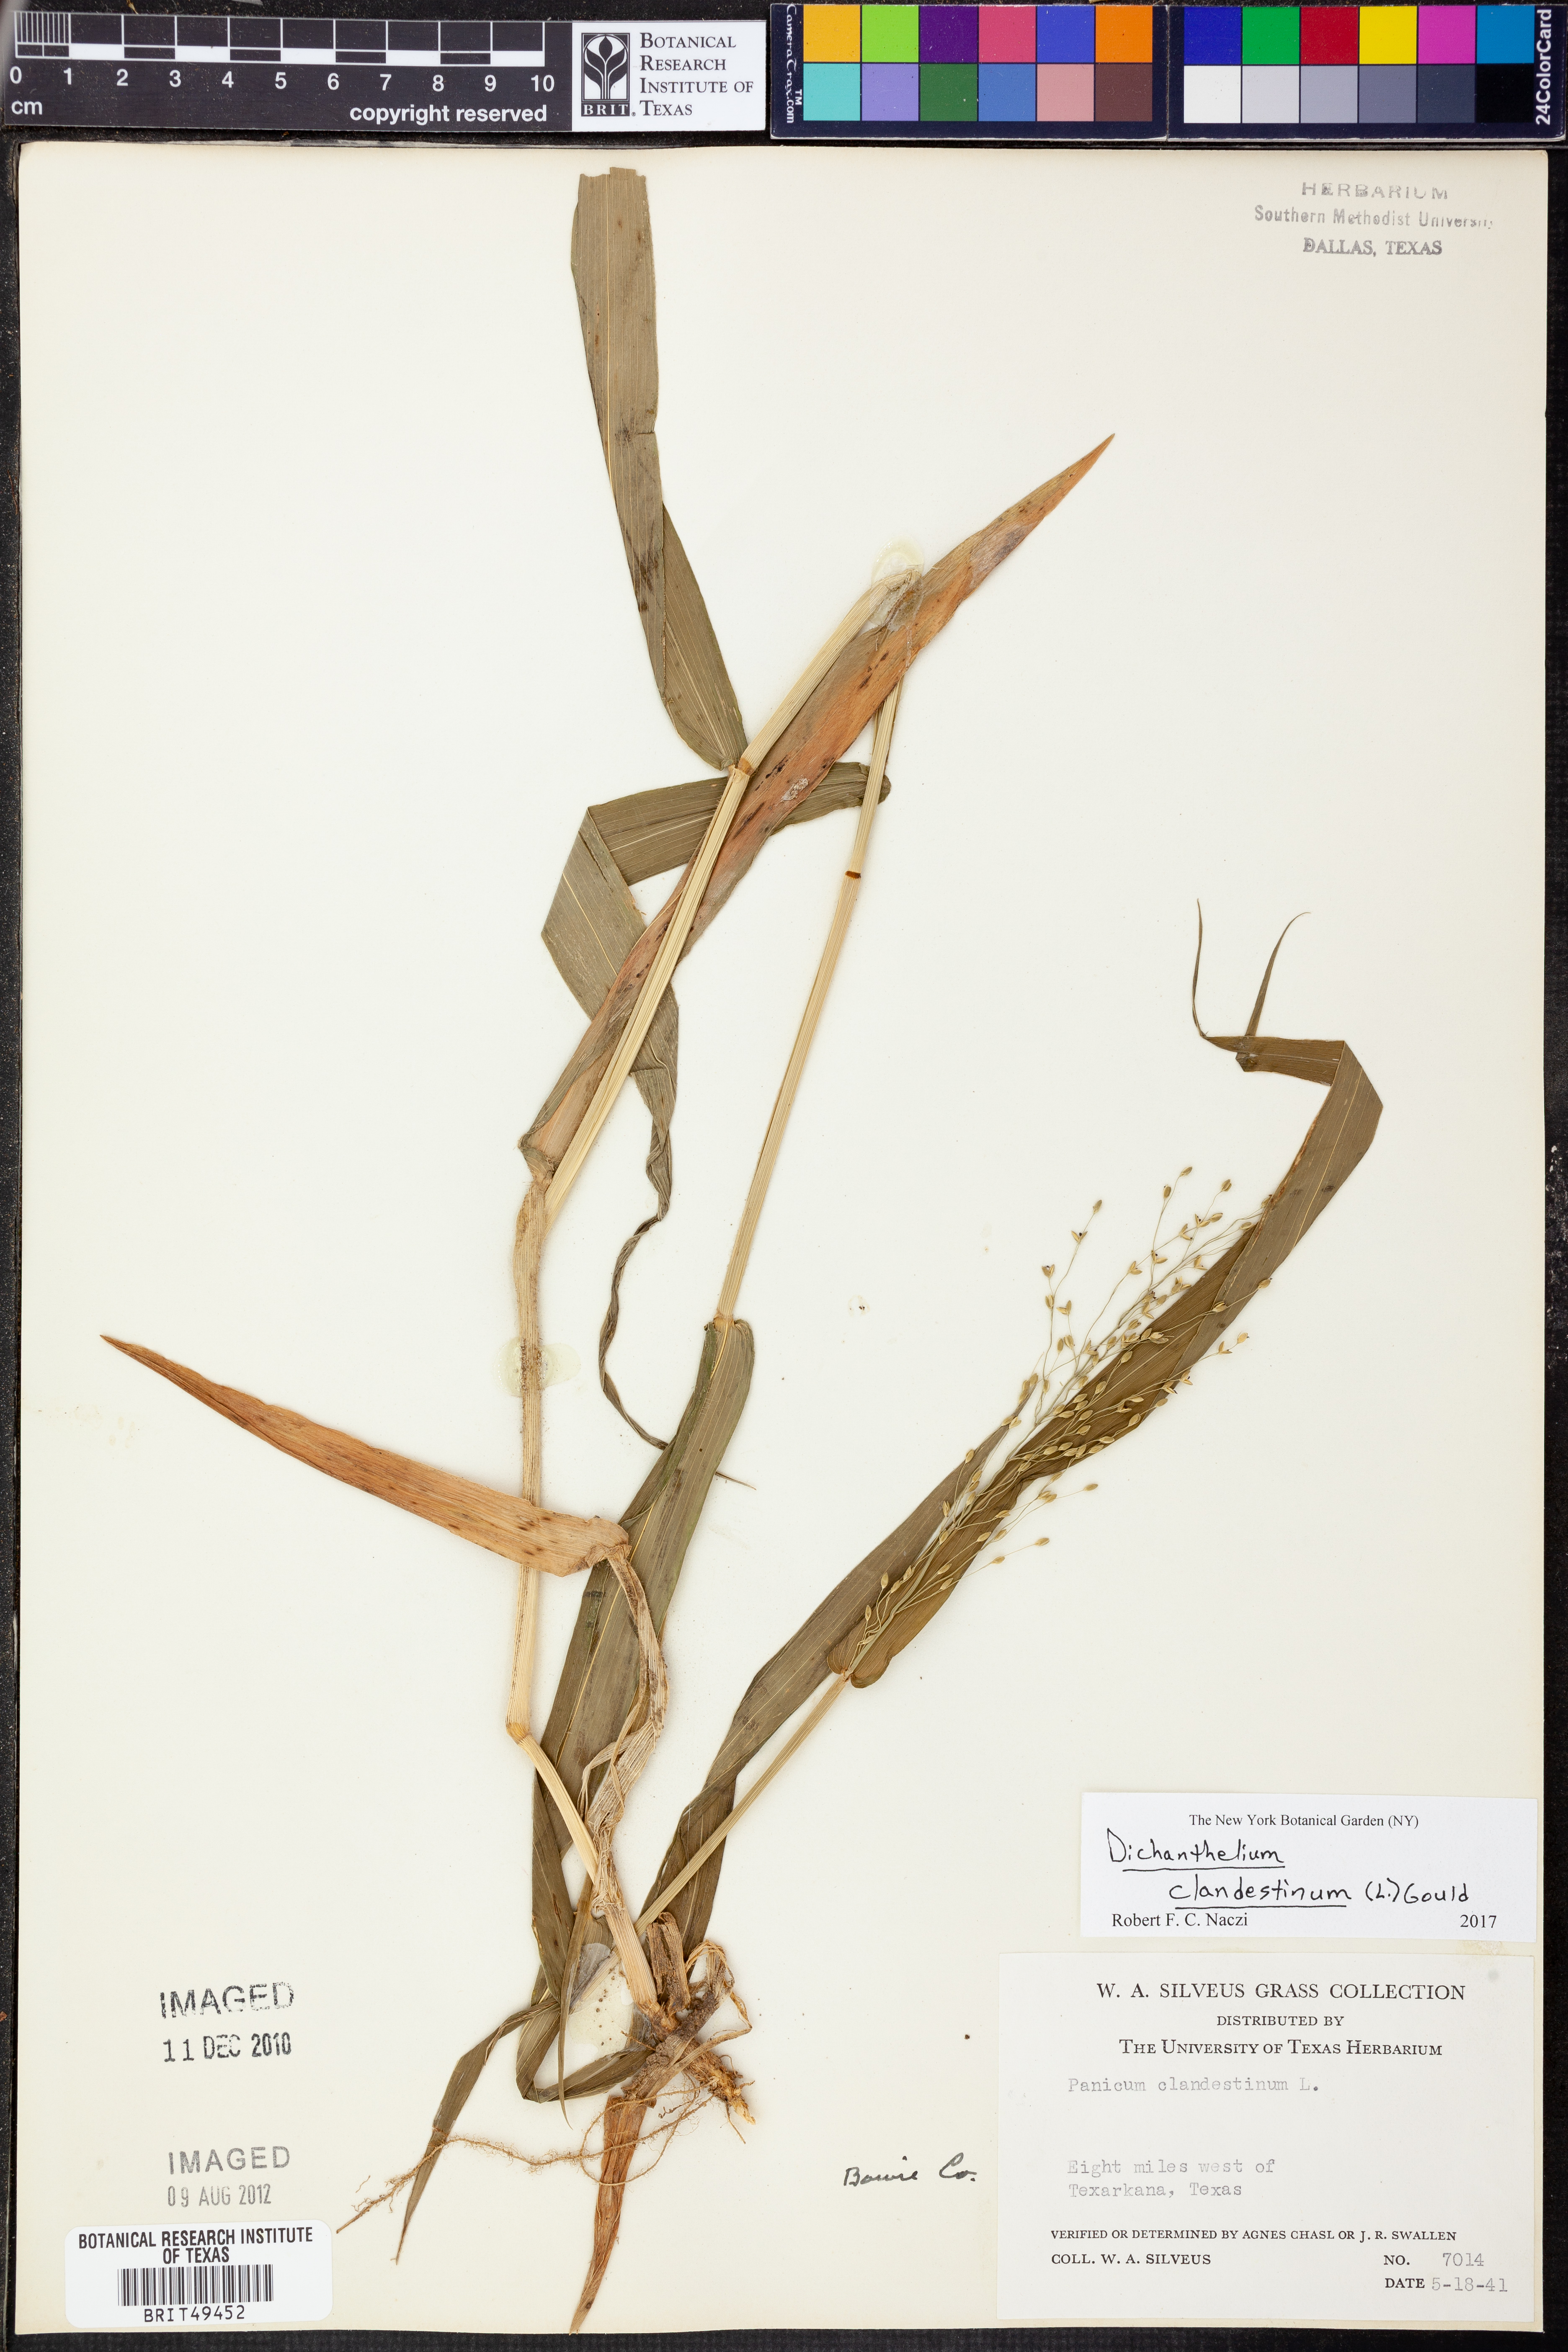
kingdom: Plantae
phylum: Tracheophyta
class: Liliopsida
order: Poales
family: Poaceae
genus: Dichanthelium
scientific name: Dichanthelium clandestinum
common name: Deer-tongue grass
